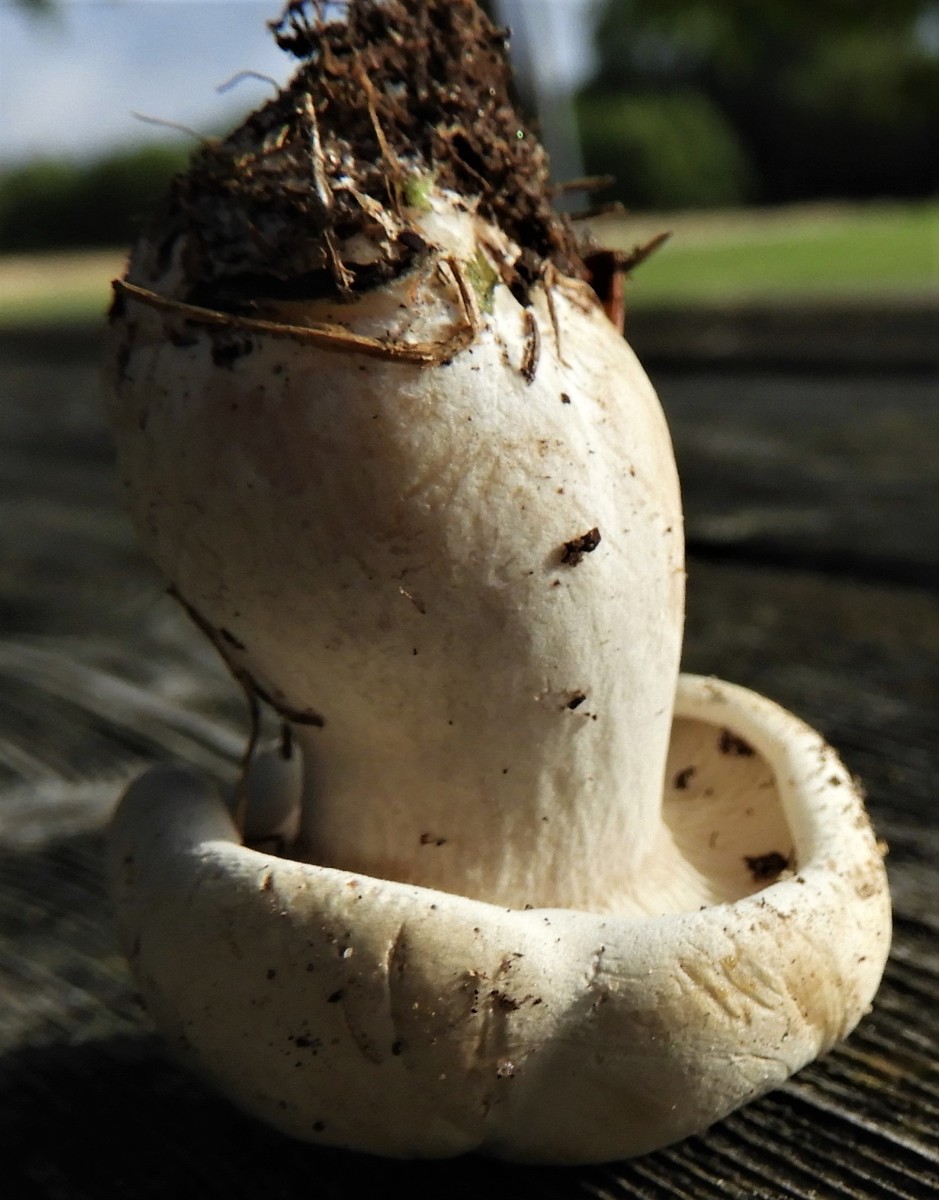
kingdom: Fungi
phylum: Basidiomycota
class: Agaricomycetes
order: Agaricales
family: Entolomataceae
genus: Clitopilus
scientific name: Clitopilus prunulus
